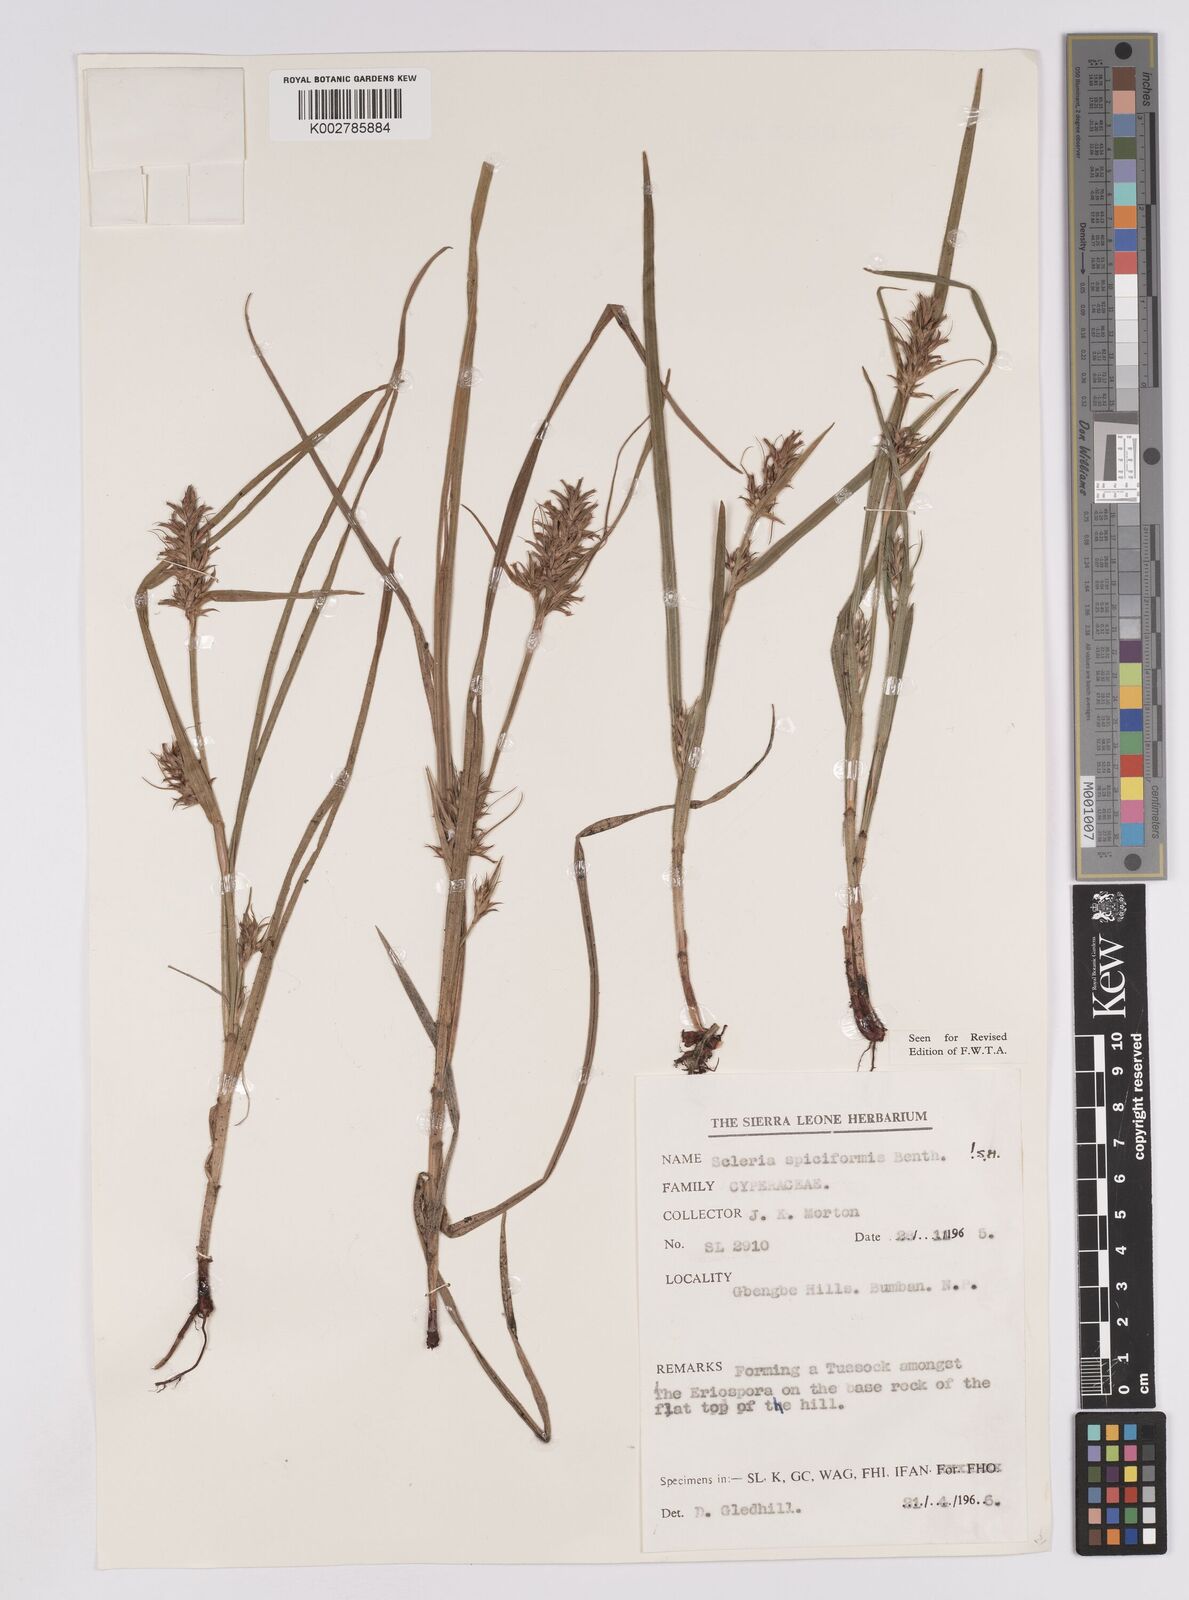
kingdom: Plantae
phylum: Tracheophyta
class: Liliopsida
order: Poales
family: Cyperaceae
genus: Scleria
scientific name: Scleria spiciformis
